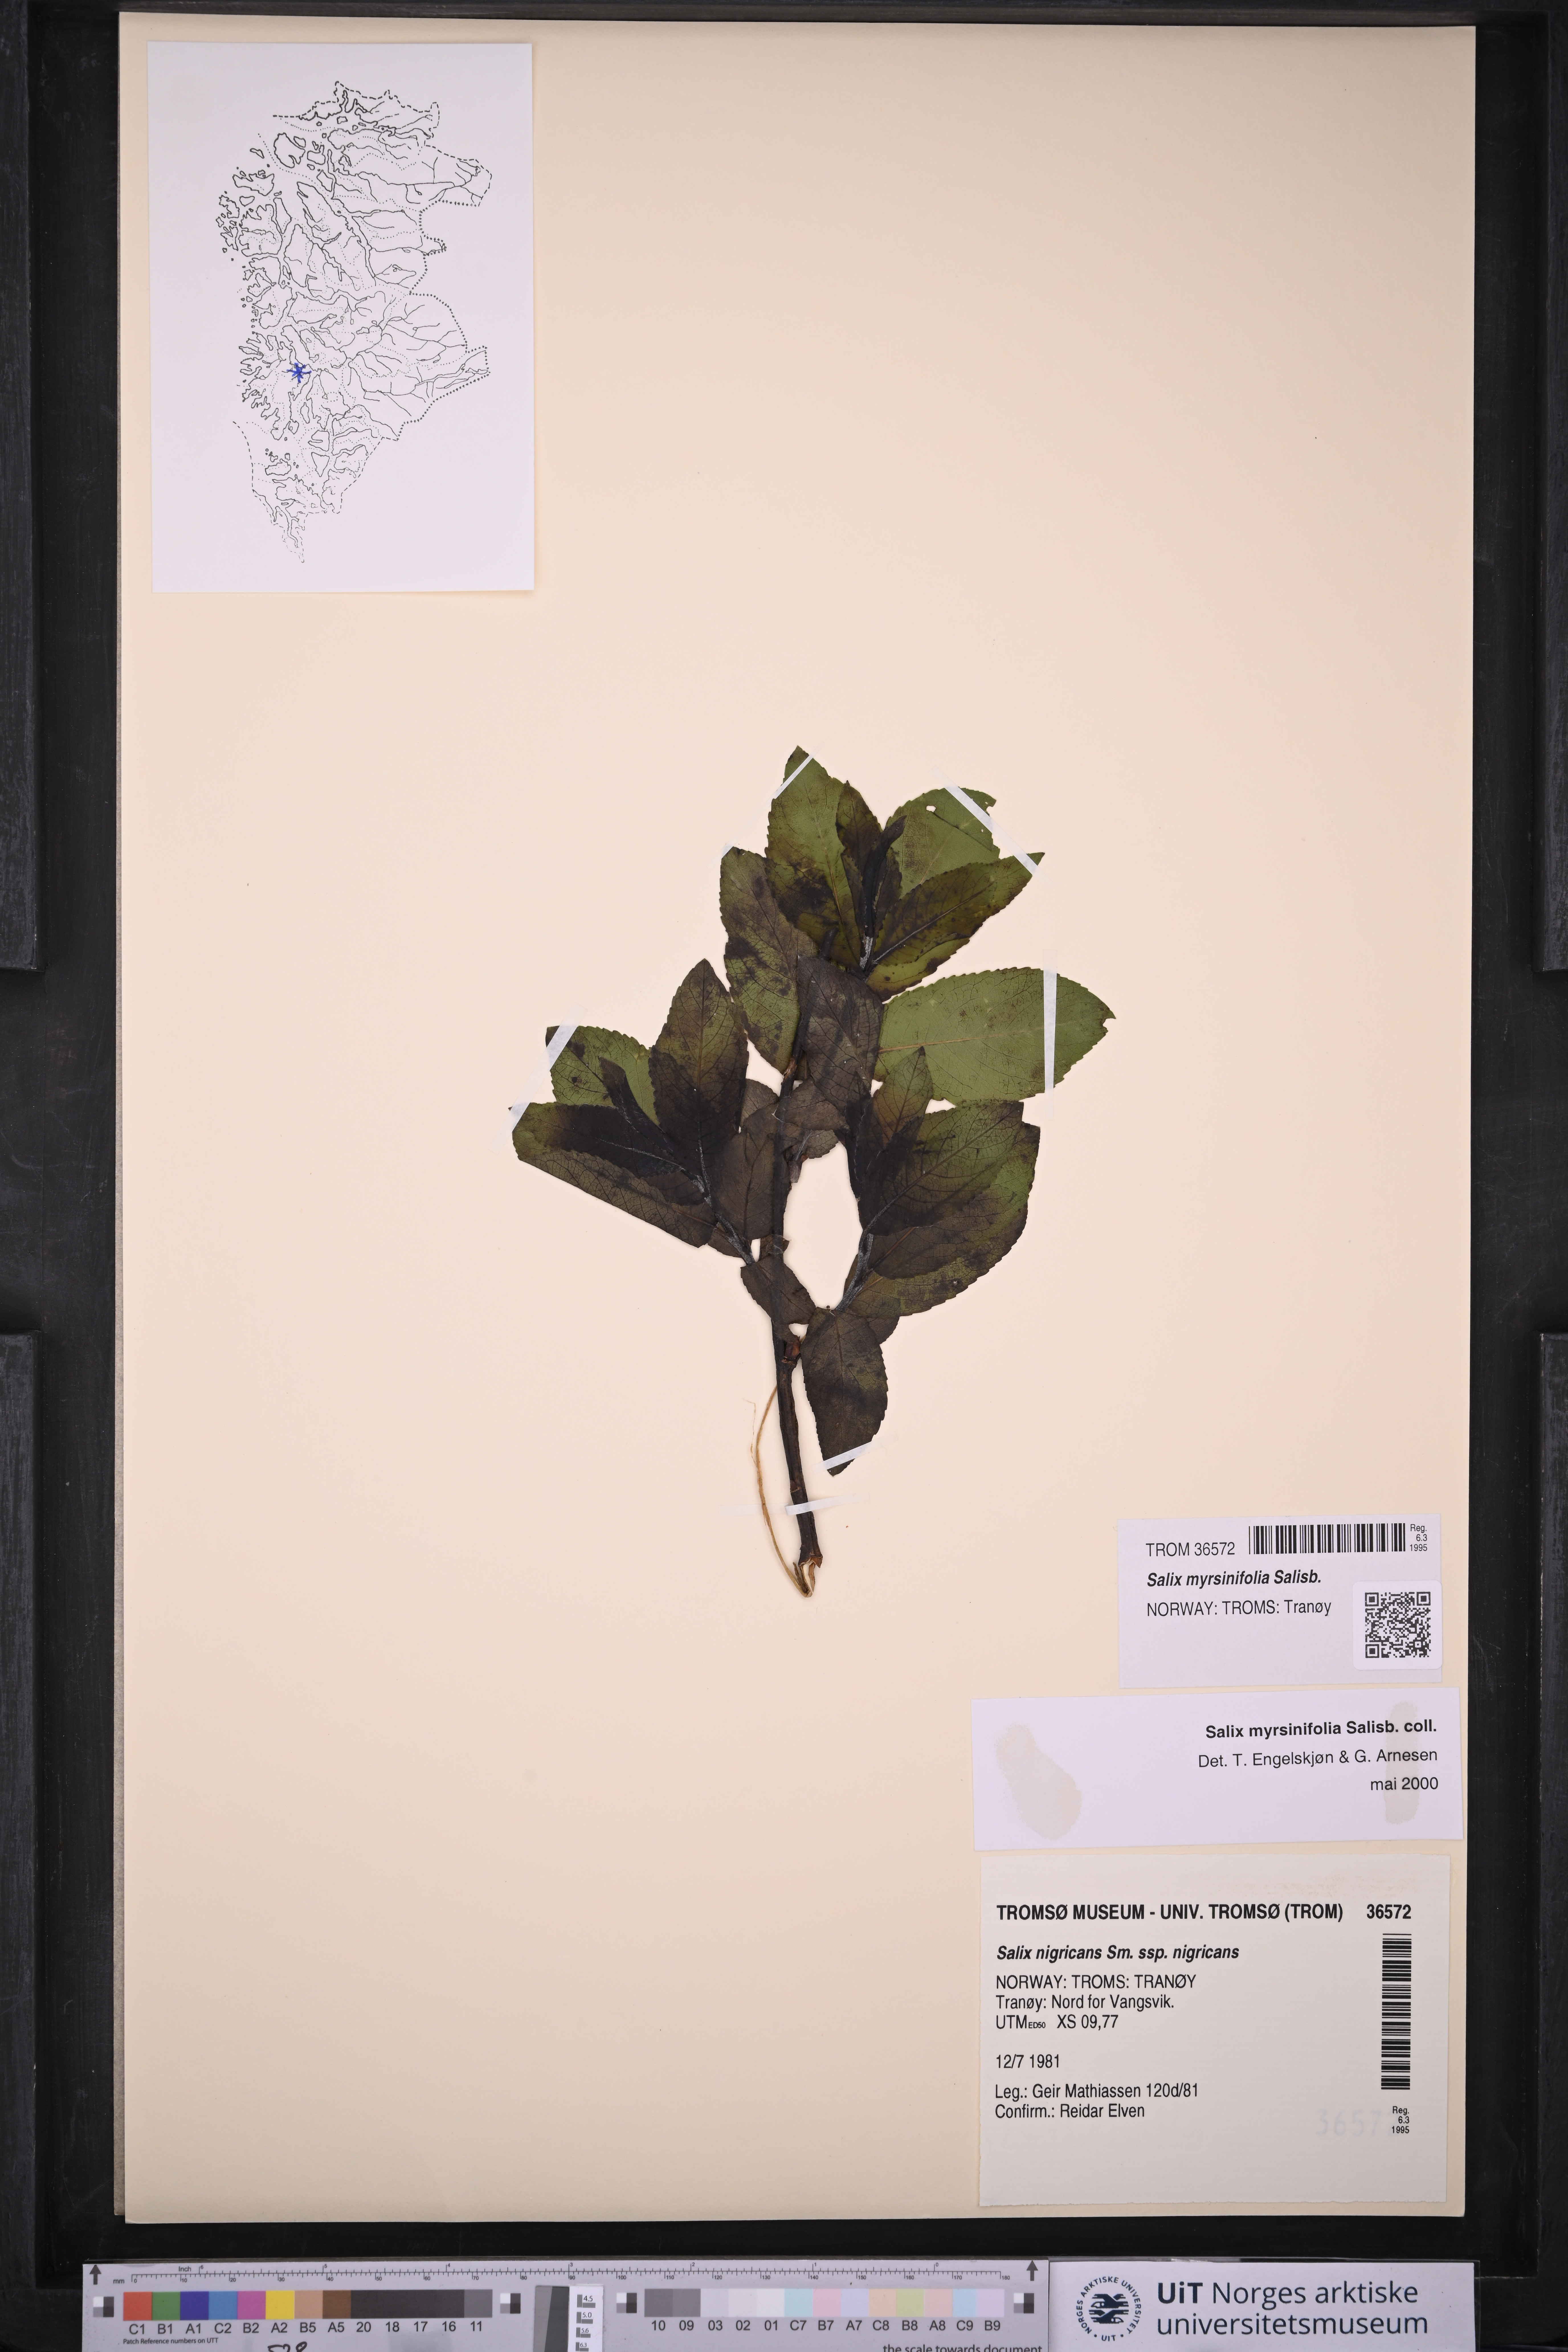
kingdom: Plantae
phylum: Tracheophyta
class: Magnoliopsida
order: Malpighiales
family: Salicaceae
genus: Salix
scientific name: Salix myrsinifolia
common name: Dark-leaved willow
